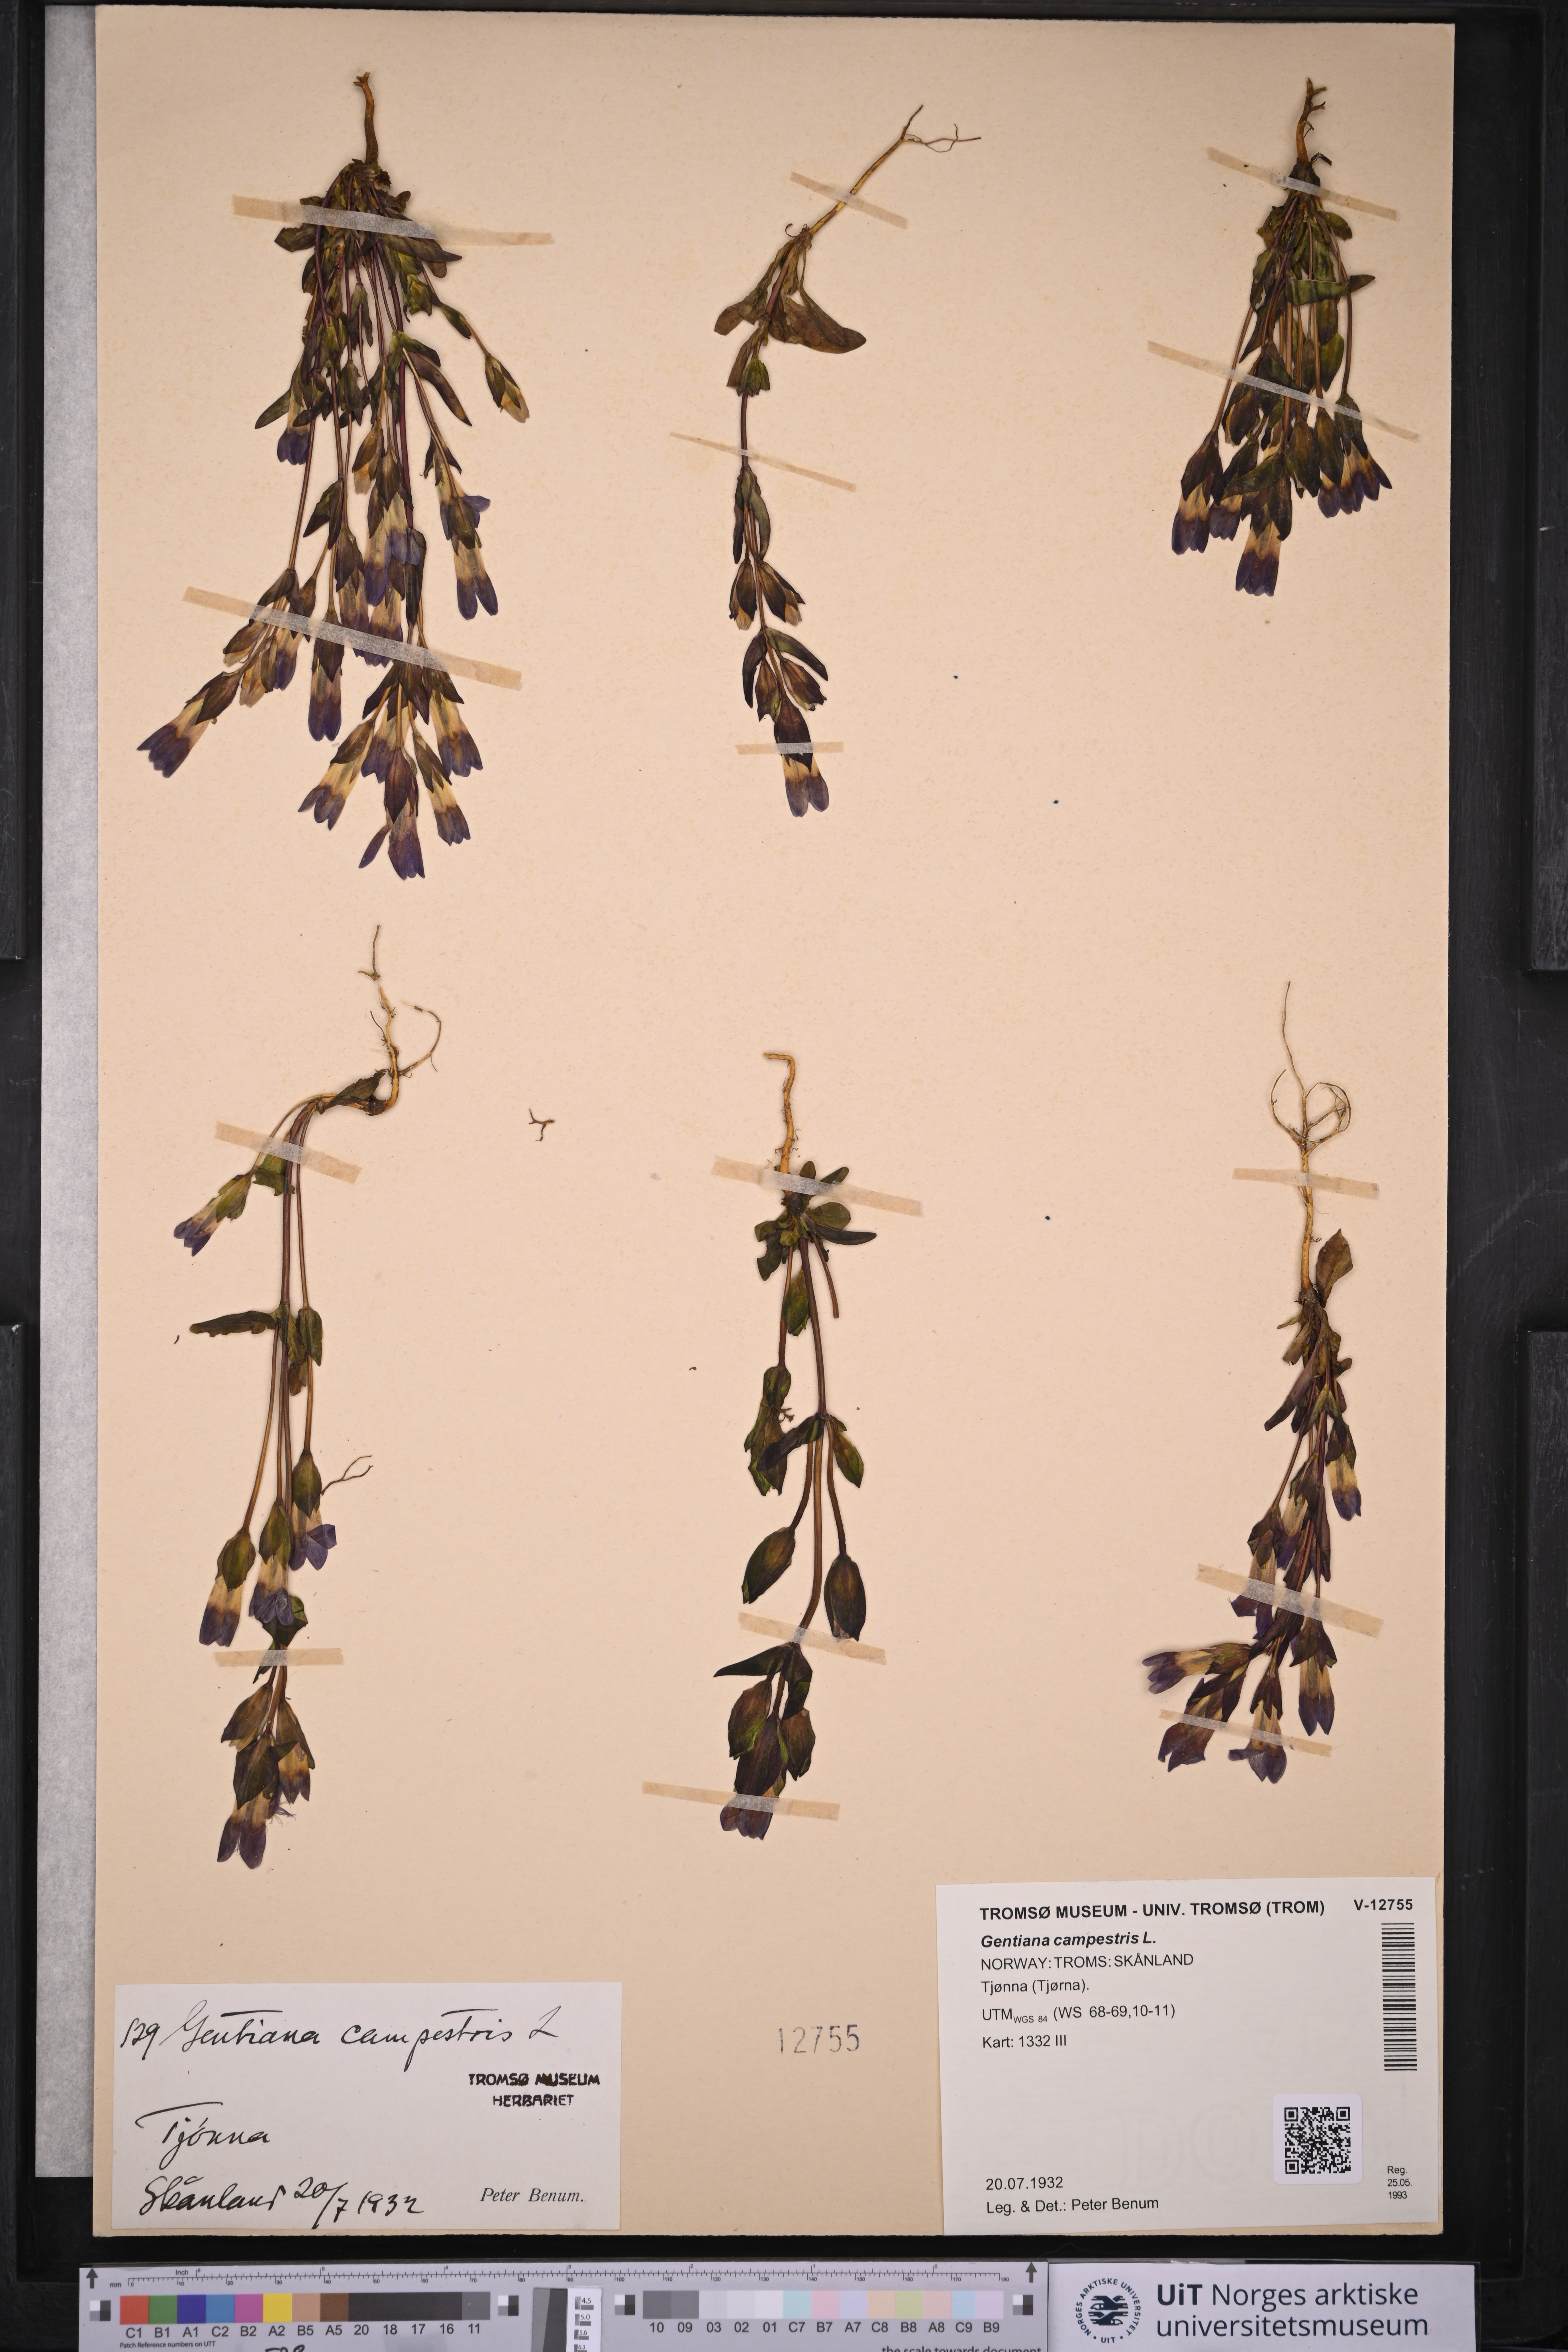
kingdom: Plantae
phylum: Tracheophyta
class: Magnoliopsida
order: Gentianales
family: Gentianaceae
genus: Gentianella
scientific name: Gentianella campestris
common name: Field gentian
